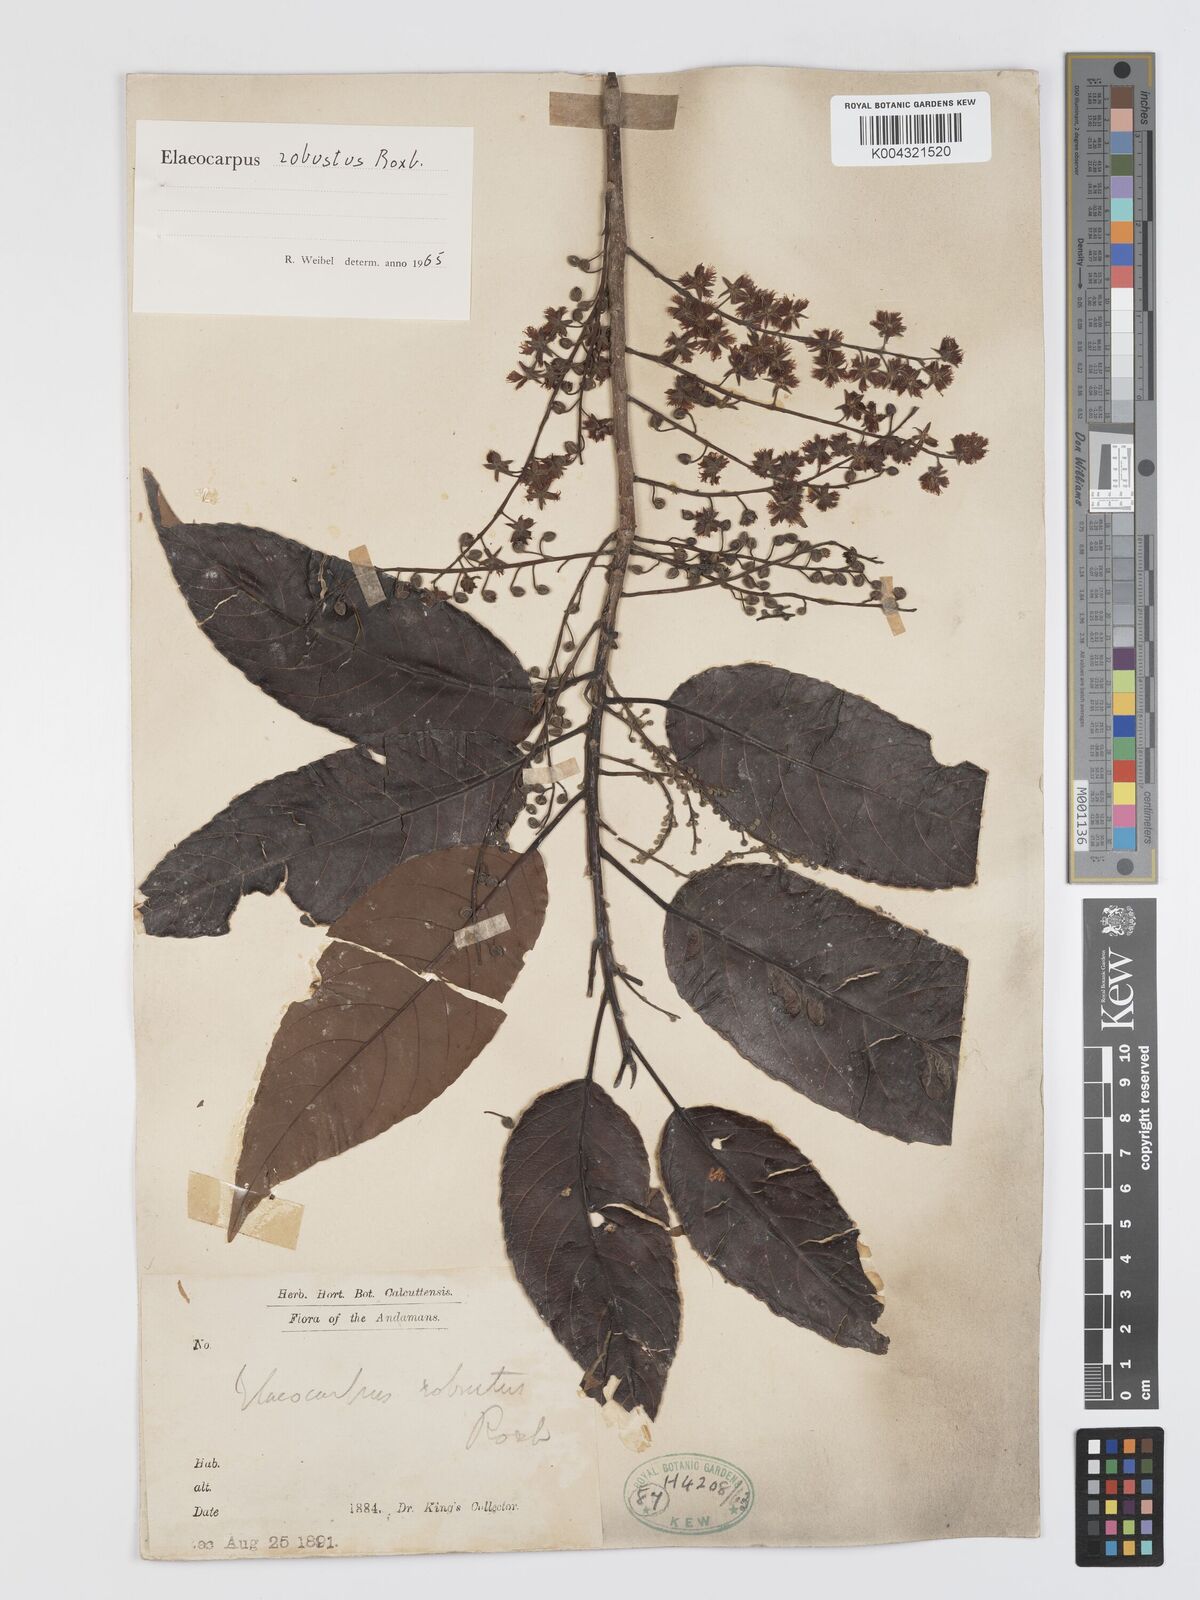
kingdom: Plantae
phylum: Tracheophyta
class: Magnoliopsida
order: Oxalidales
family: Elaeocarpaceae
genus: Elaeocarpus
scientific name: Elaeocarpus robustus
